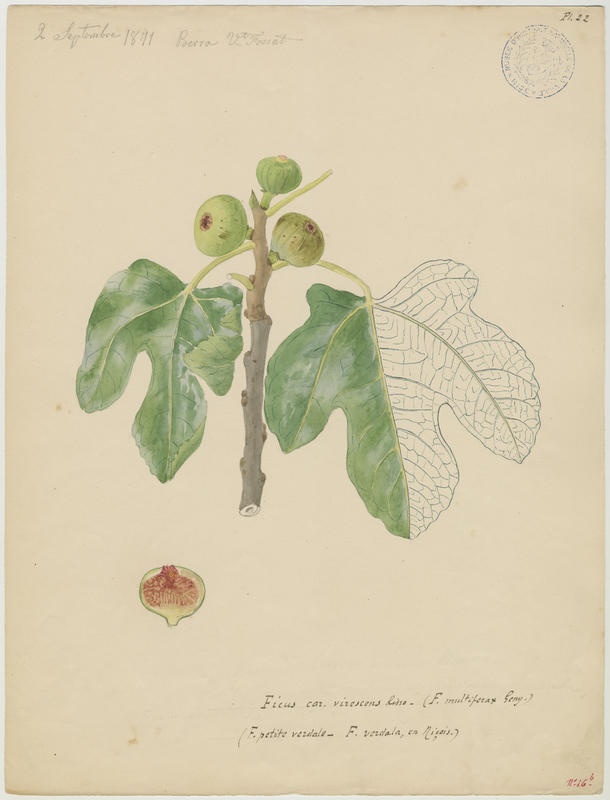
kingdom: Plantae
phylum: Tracheophyta
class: Magnoliopsida
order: Rosales
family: Moraceae
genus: Ficus
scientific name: Ficus carica
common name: Fig
